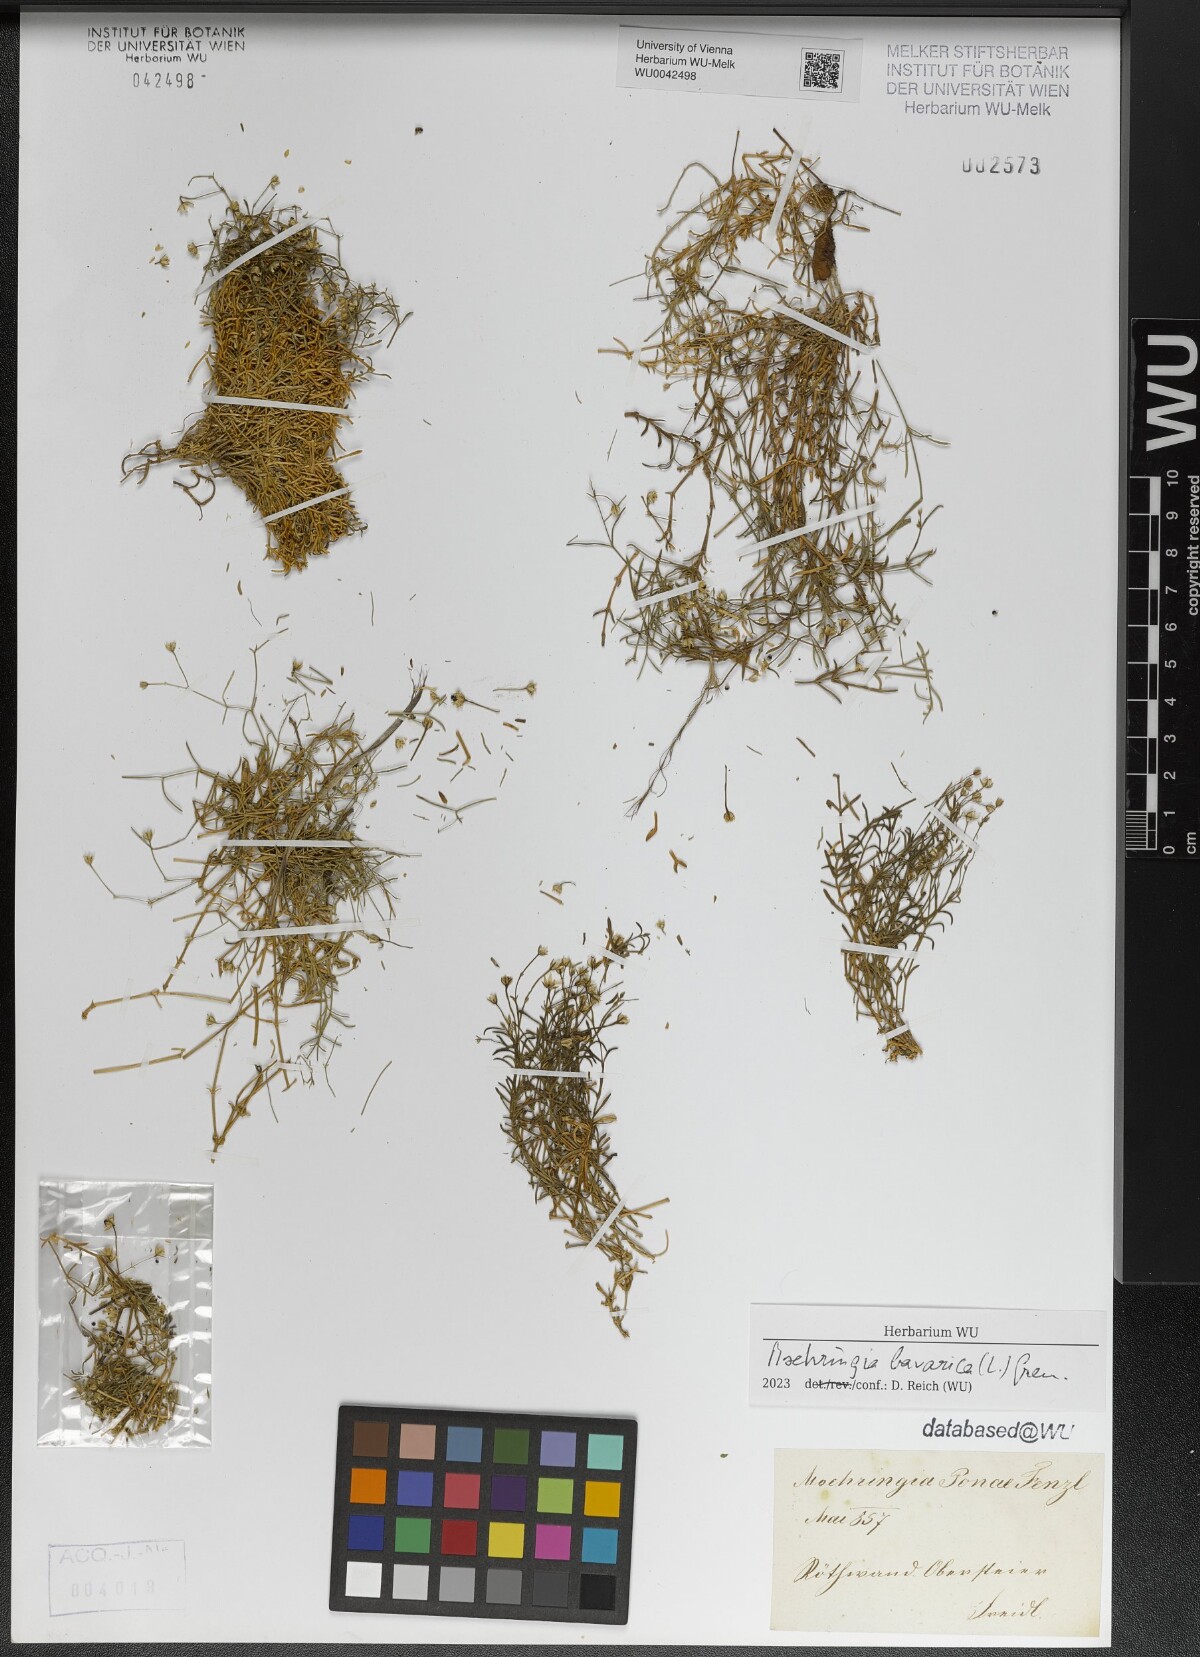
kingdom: Plantae
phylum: Tracheophyta
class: Magnoliopsida
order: Caryophyllales
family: Caryophyllaceae
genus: Moehringia
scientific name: Moehringia bavarica
